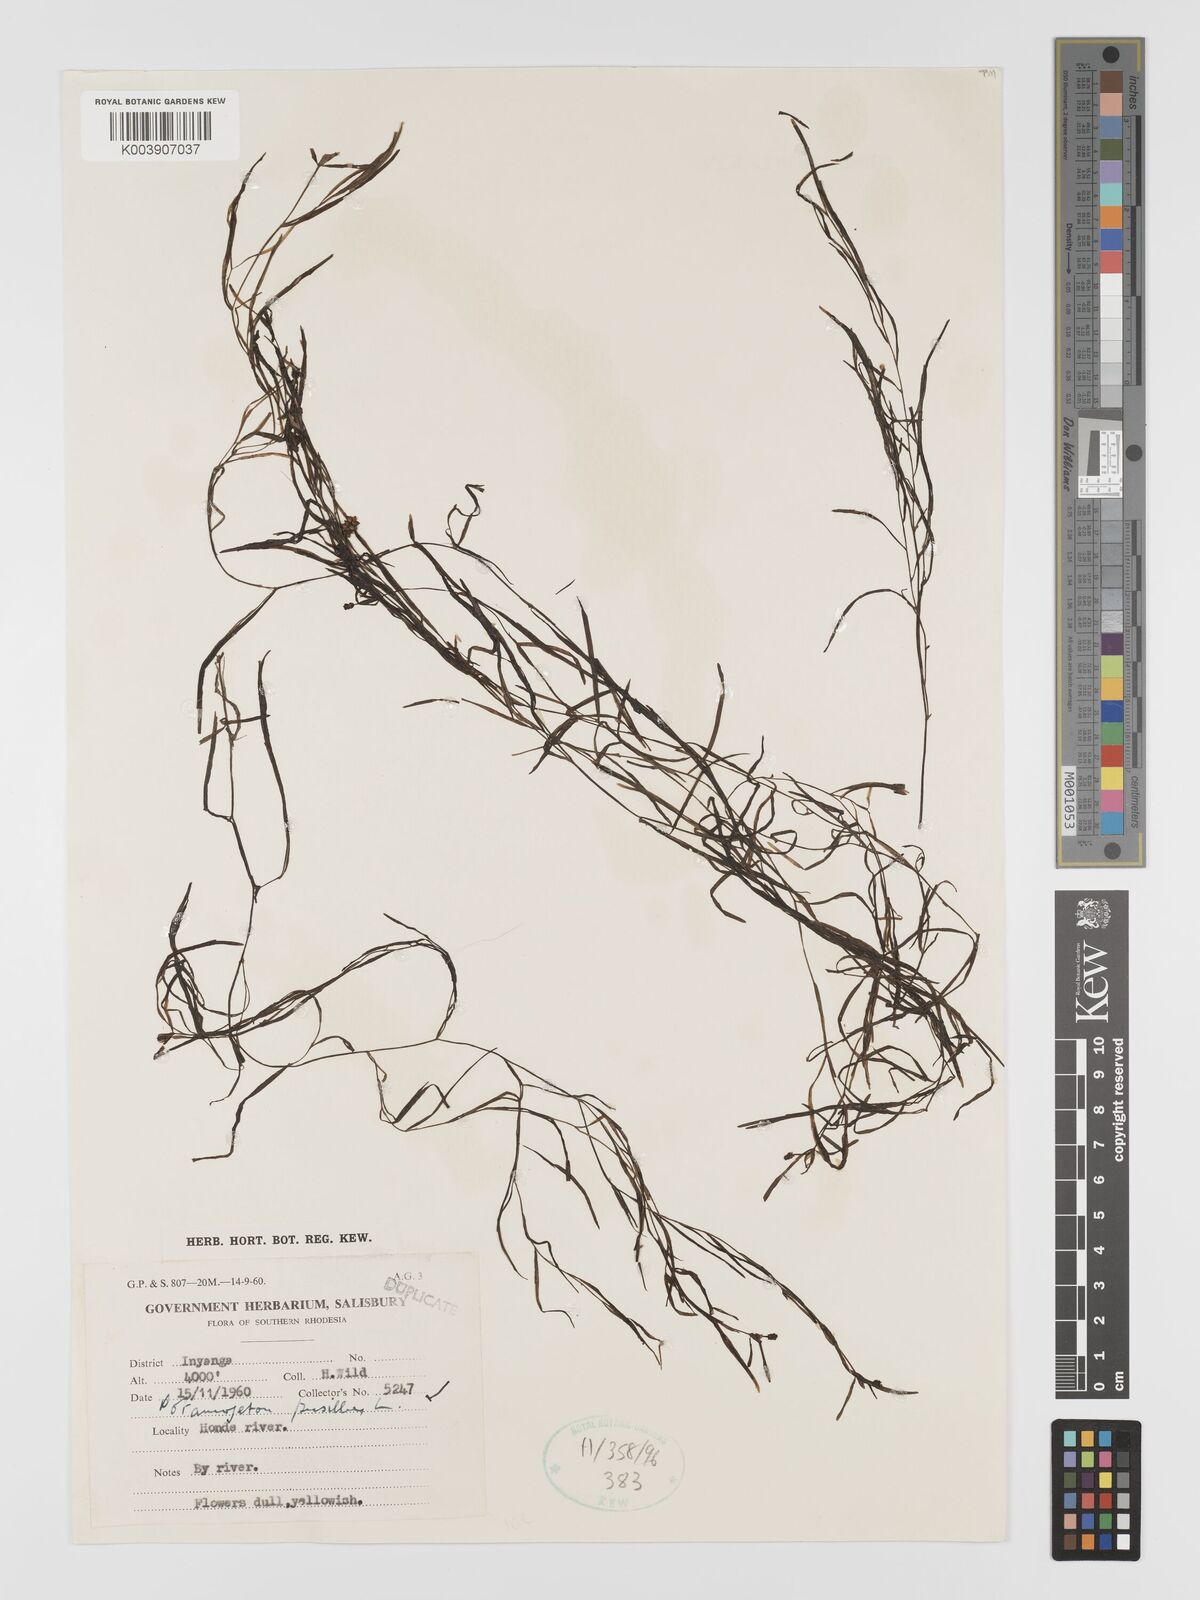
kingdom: Plantae
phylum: Tracheophyta
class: Liliopsida
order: Alismatales
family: Potamogetonaceae
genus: Potamogeton
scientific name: Potamogeton pusillus
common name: Lesser pondweed
